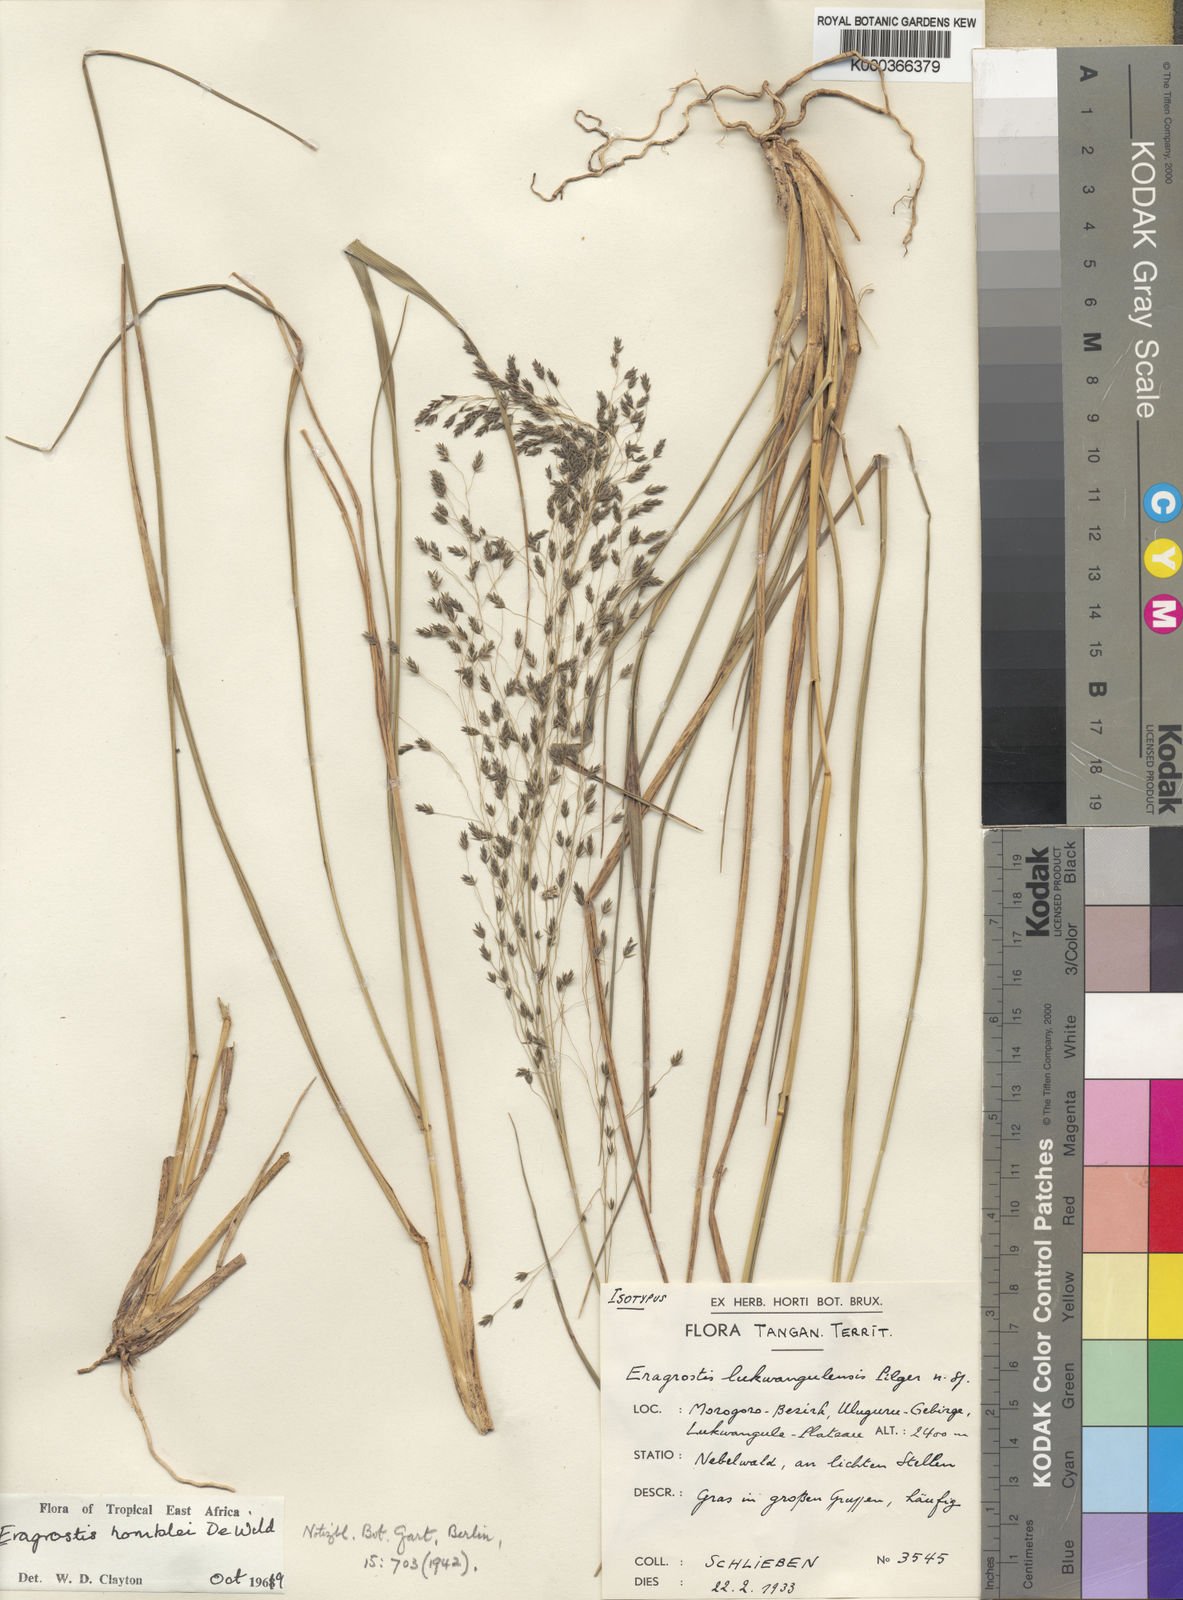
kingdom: Plantae
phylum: Tracheophyta
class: Liliopsida
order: Poales
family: Poaceae
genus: Eragrostis
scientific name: Eragrostis homblei
